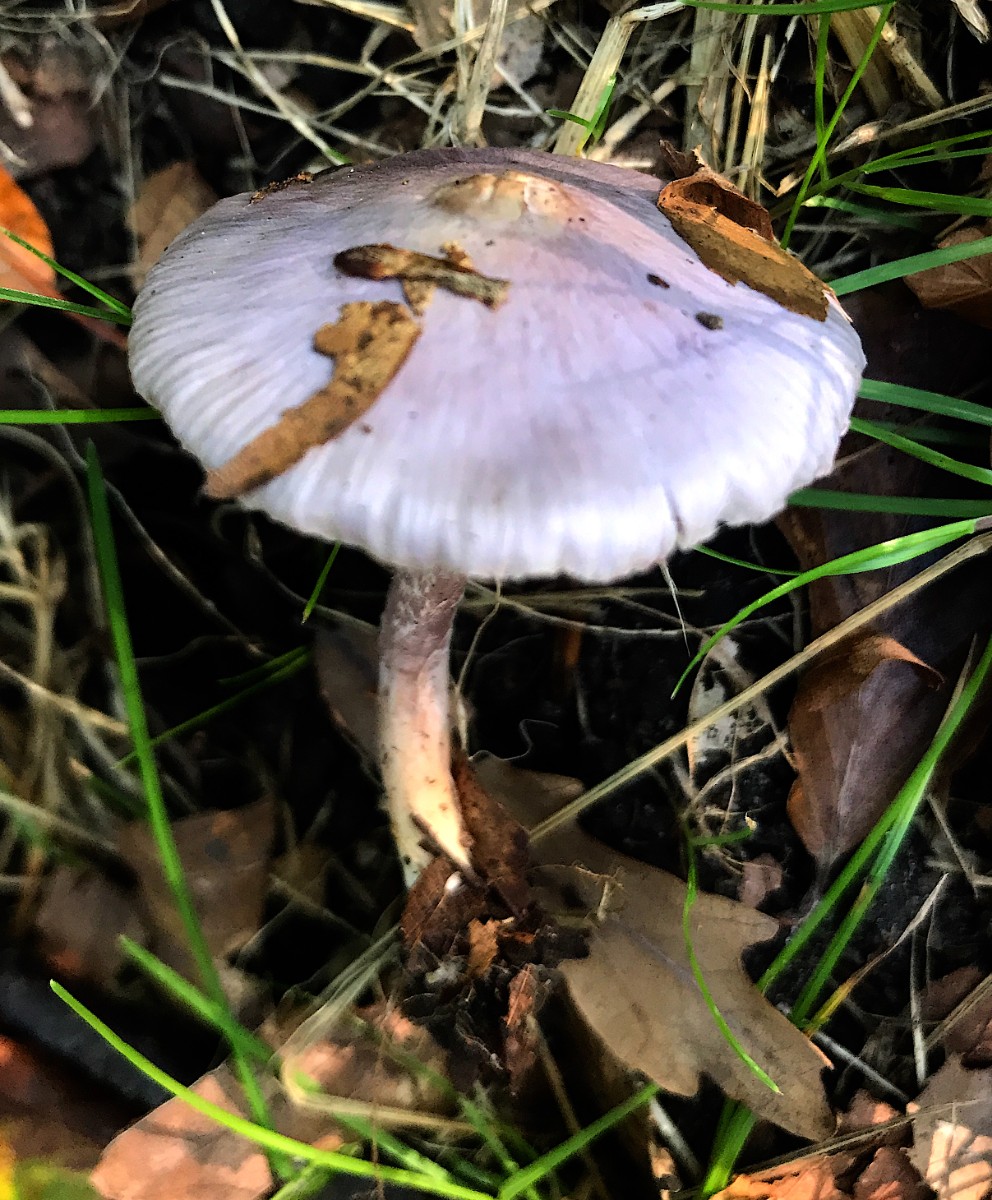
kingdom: Fungi
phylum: Basidiomycota
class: Agaricomycetes
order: Agaricales
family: Inocybaceae
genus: Inocybe
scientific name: Inocybe geophylla
